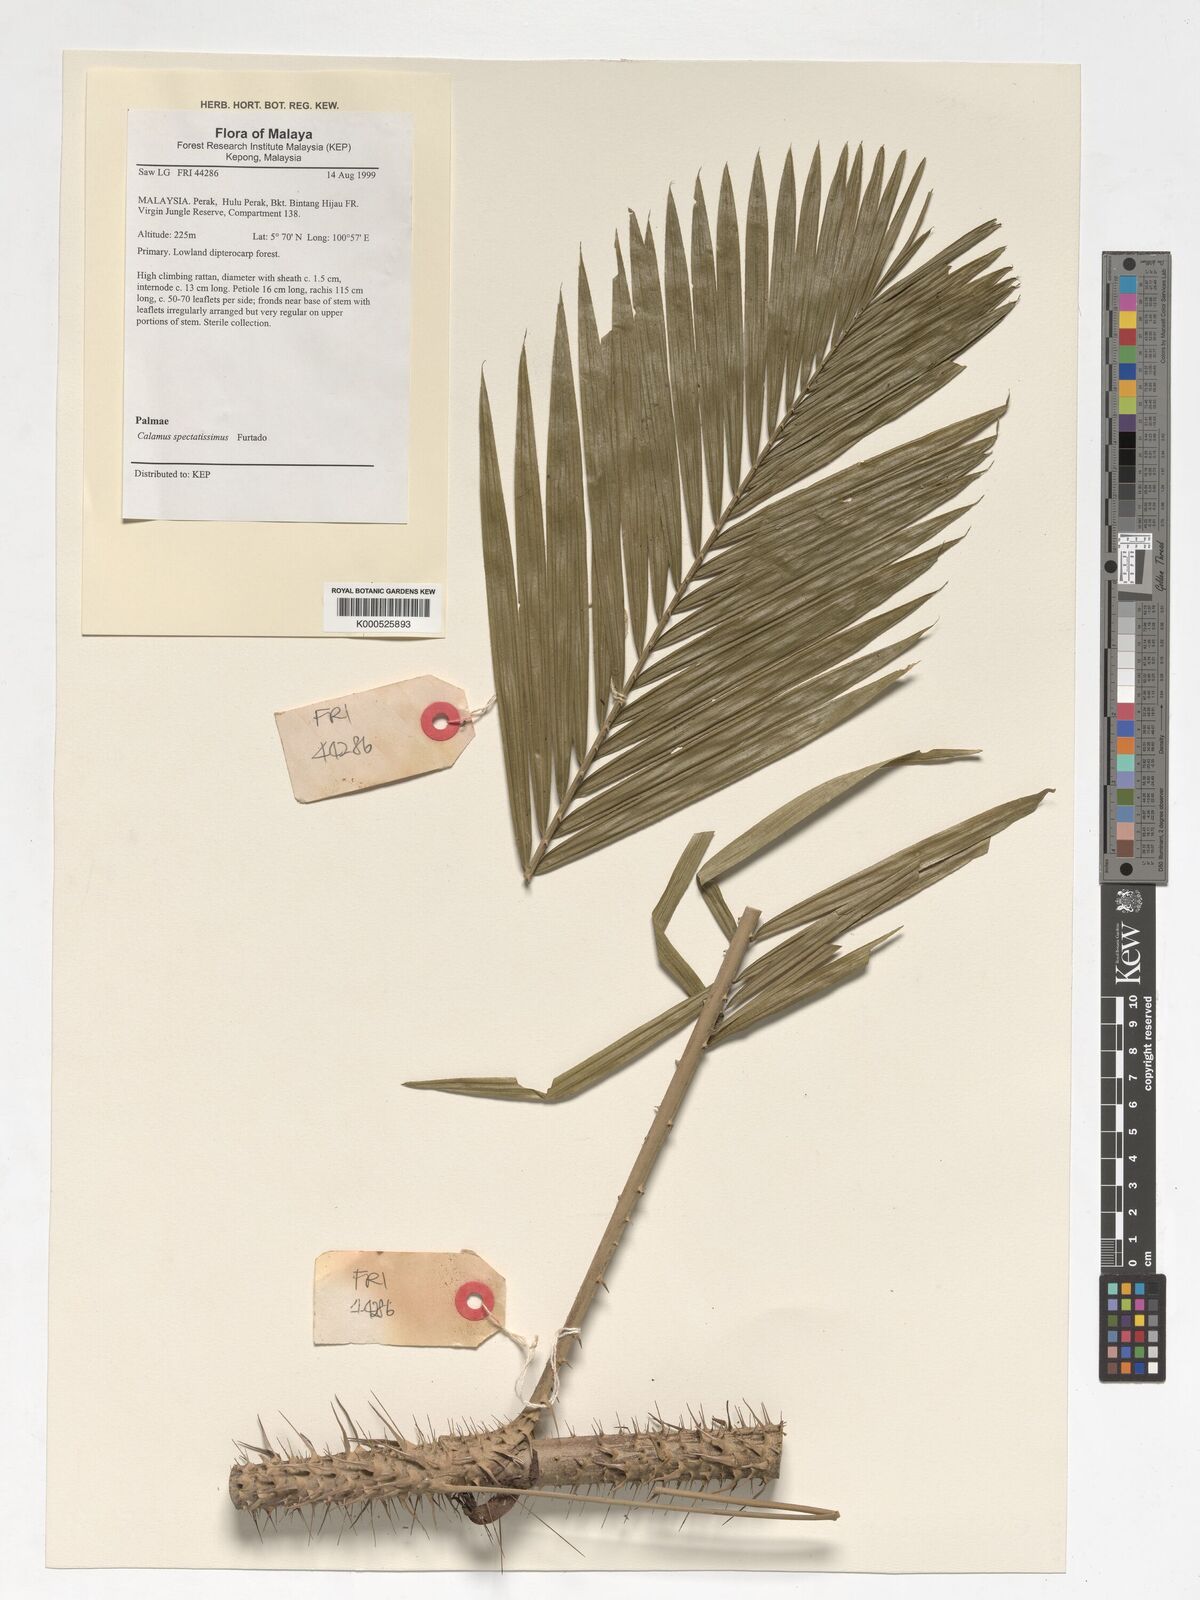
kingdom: Plantae
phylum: Tracheophyta
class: Liliopsida
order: Arecales
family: Arecaceae
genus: Calamus
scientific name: Calamus spectatissimus
